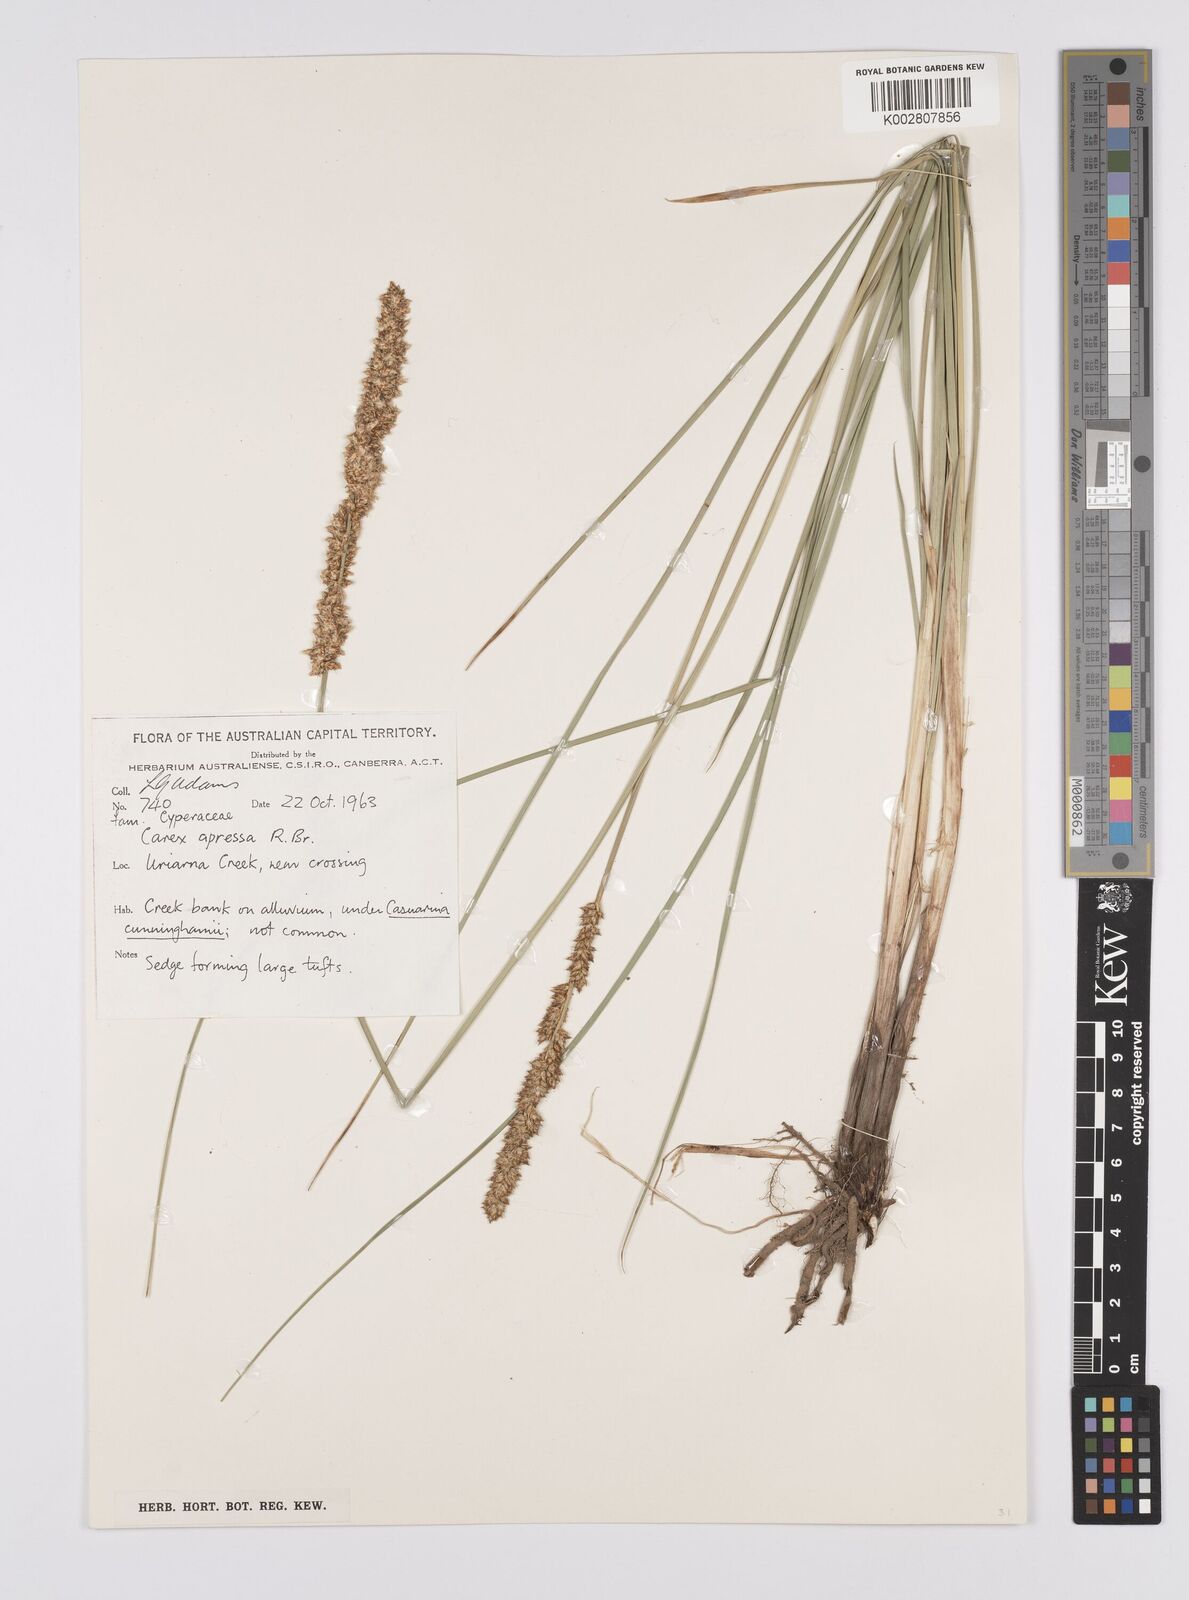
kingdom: Plantae
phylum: Tracheophyta
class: Liliopsida
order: Poales
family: Cyperaceae
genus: Carex
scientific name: Carex appressa
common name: Tussock sedge
